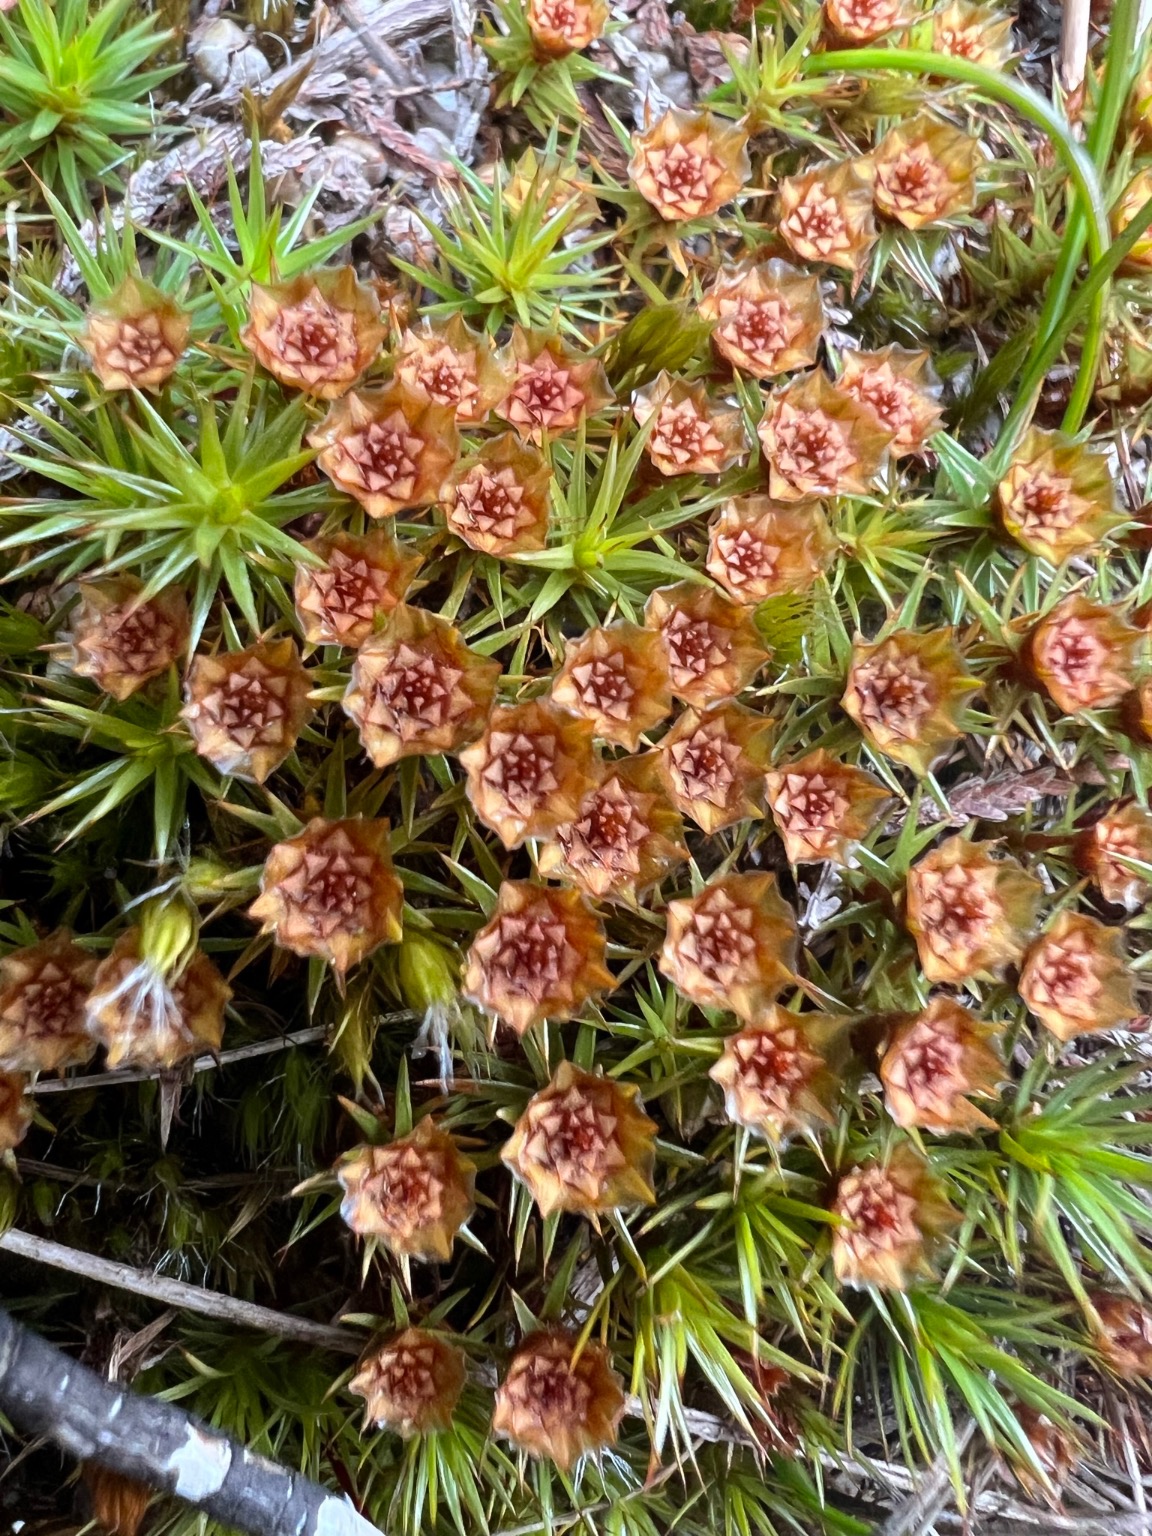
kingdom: Plantae
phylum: Bryophyta
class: Polytrichopsida
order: Polytrichales
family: Polytrichaceae
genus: Polytrichum
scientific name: Polytrichum juniperinum
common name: Ene-jomfruhår
